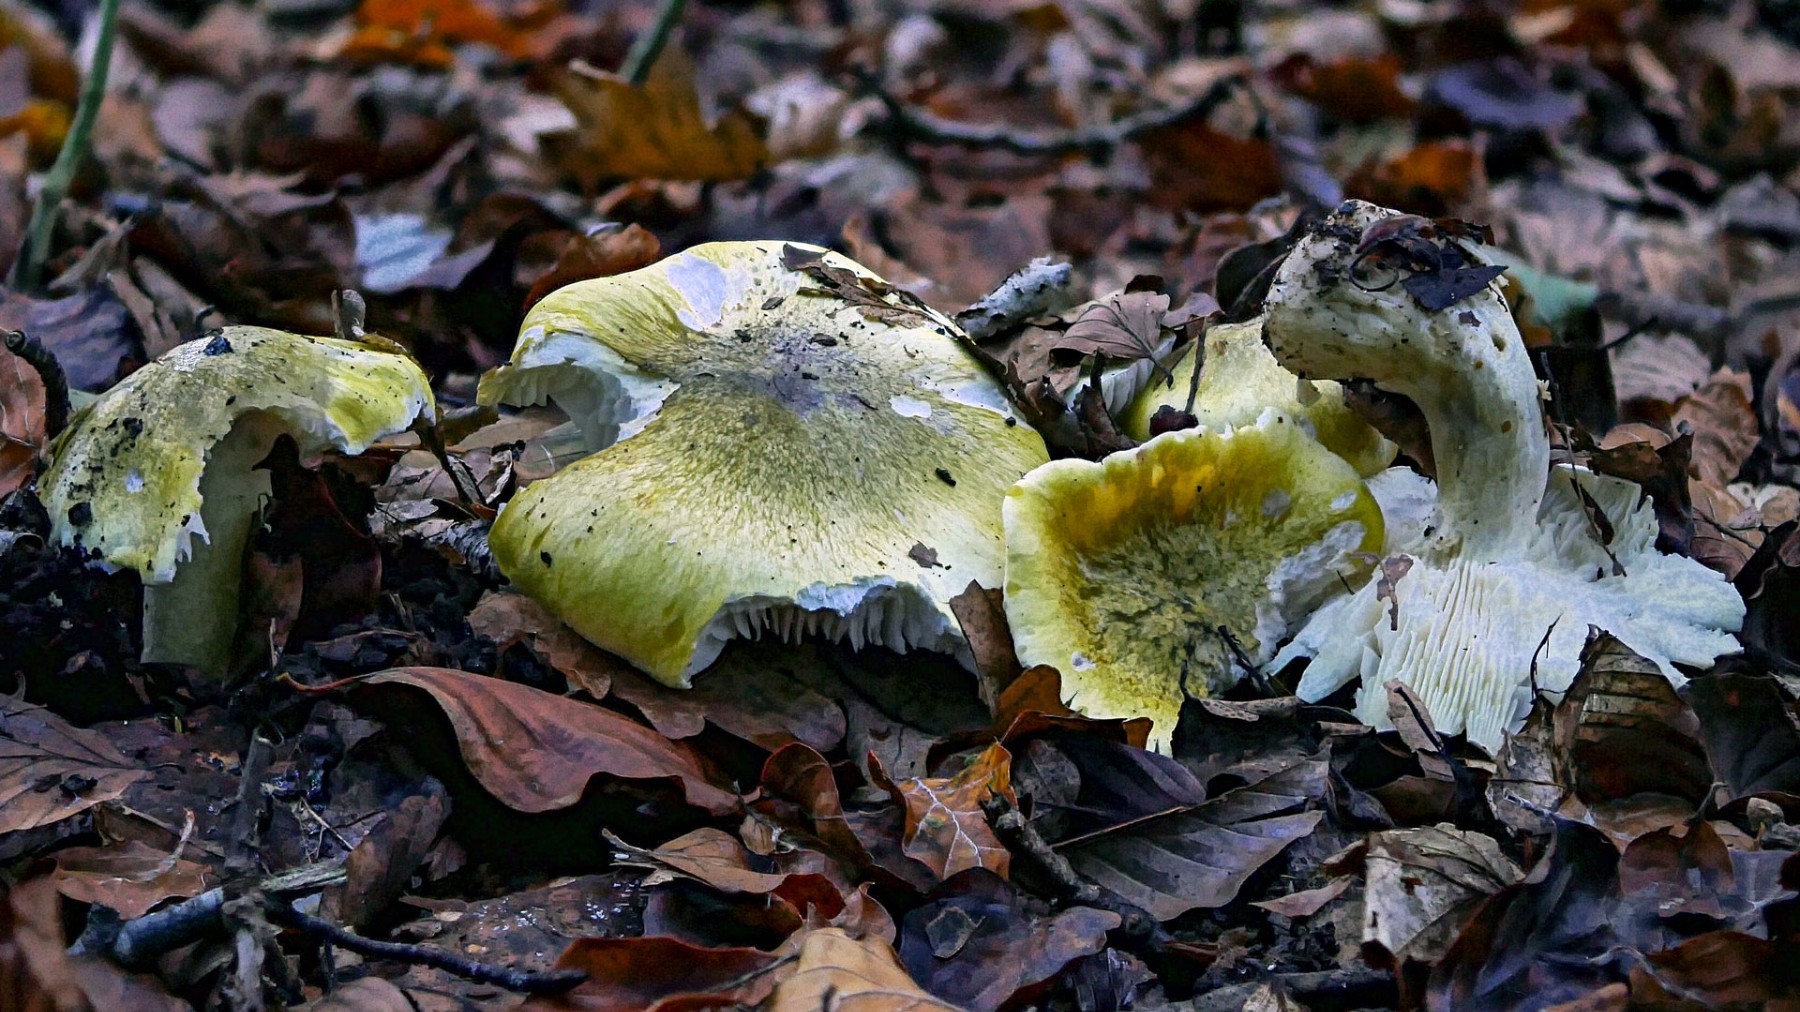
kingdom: Fungi
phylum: Basidiomycota
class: Agaricomycetes
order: Agaricales
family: Tricholomataceae
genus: Tricholoma
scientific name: Tricholoma sejunctum
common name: grøngul ridderhat
